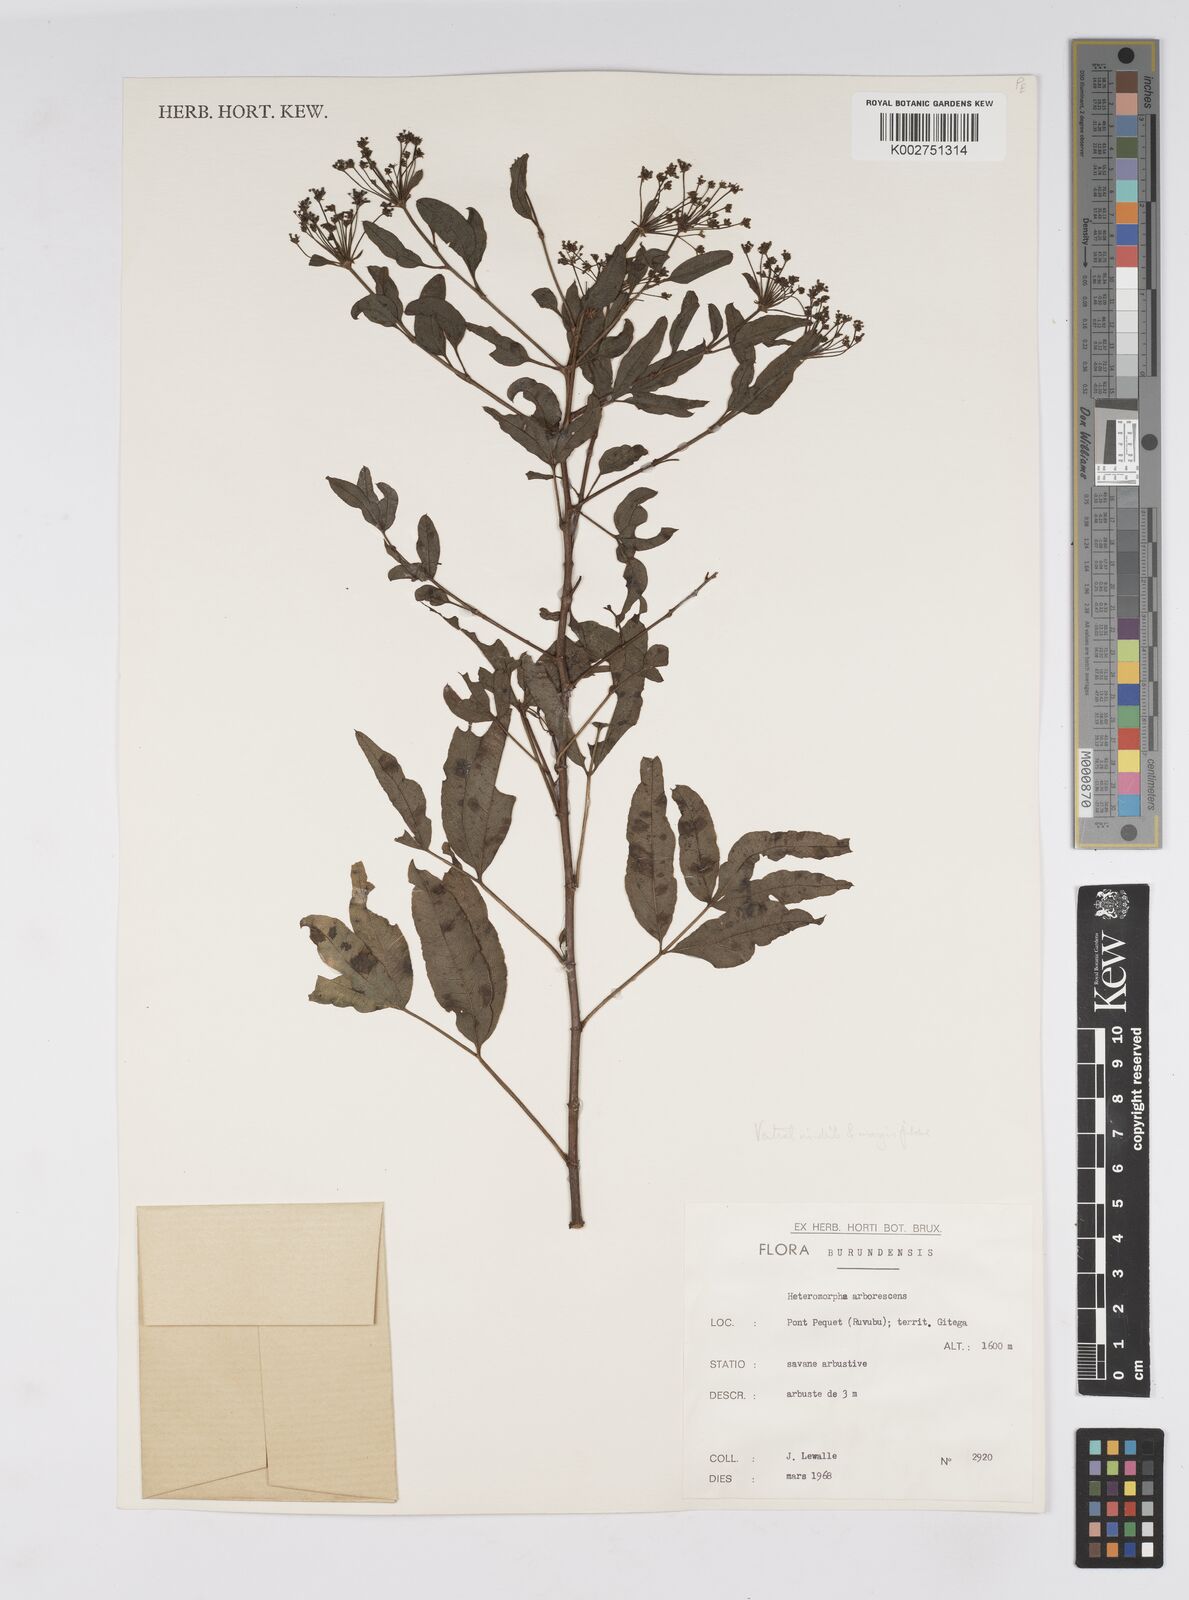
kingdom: Plantae
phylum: Tracheophyta
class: Magnoliopsida
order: Apiales
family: Apiaceae
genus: Heteromorpha
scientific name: Heteromorpha arborescens
